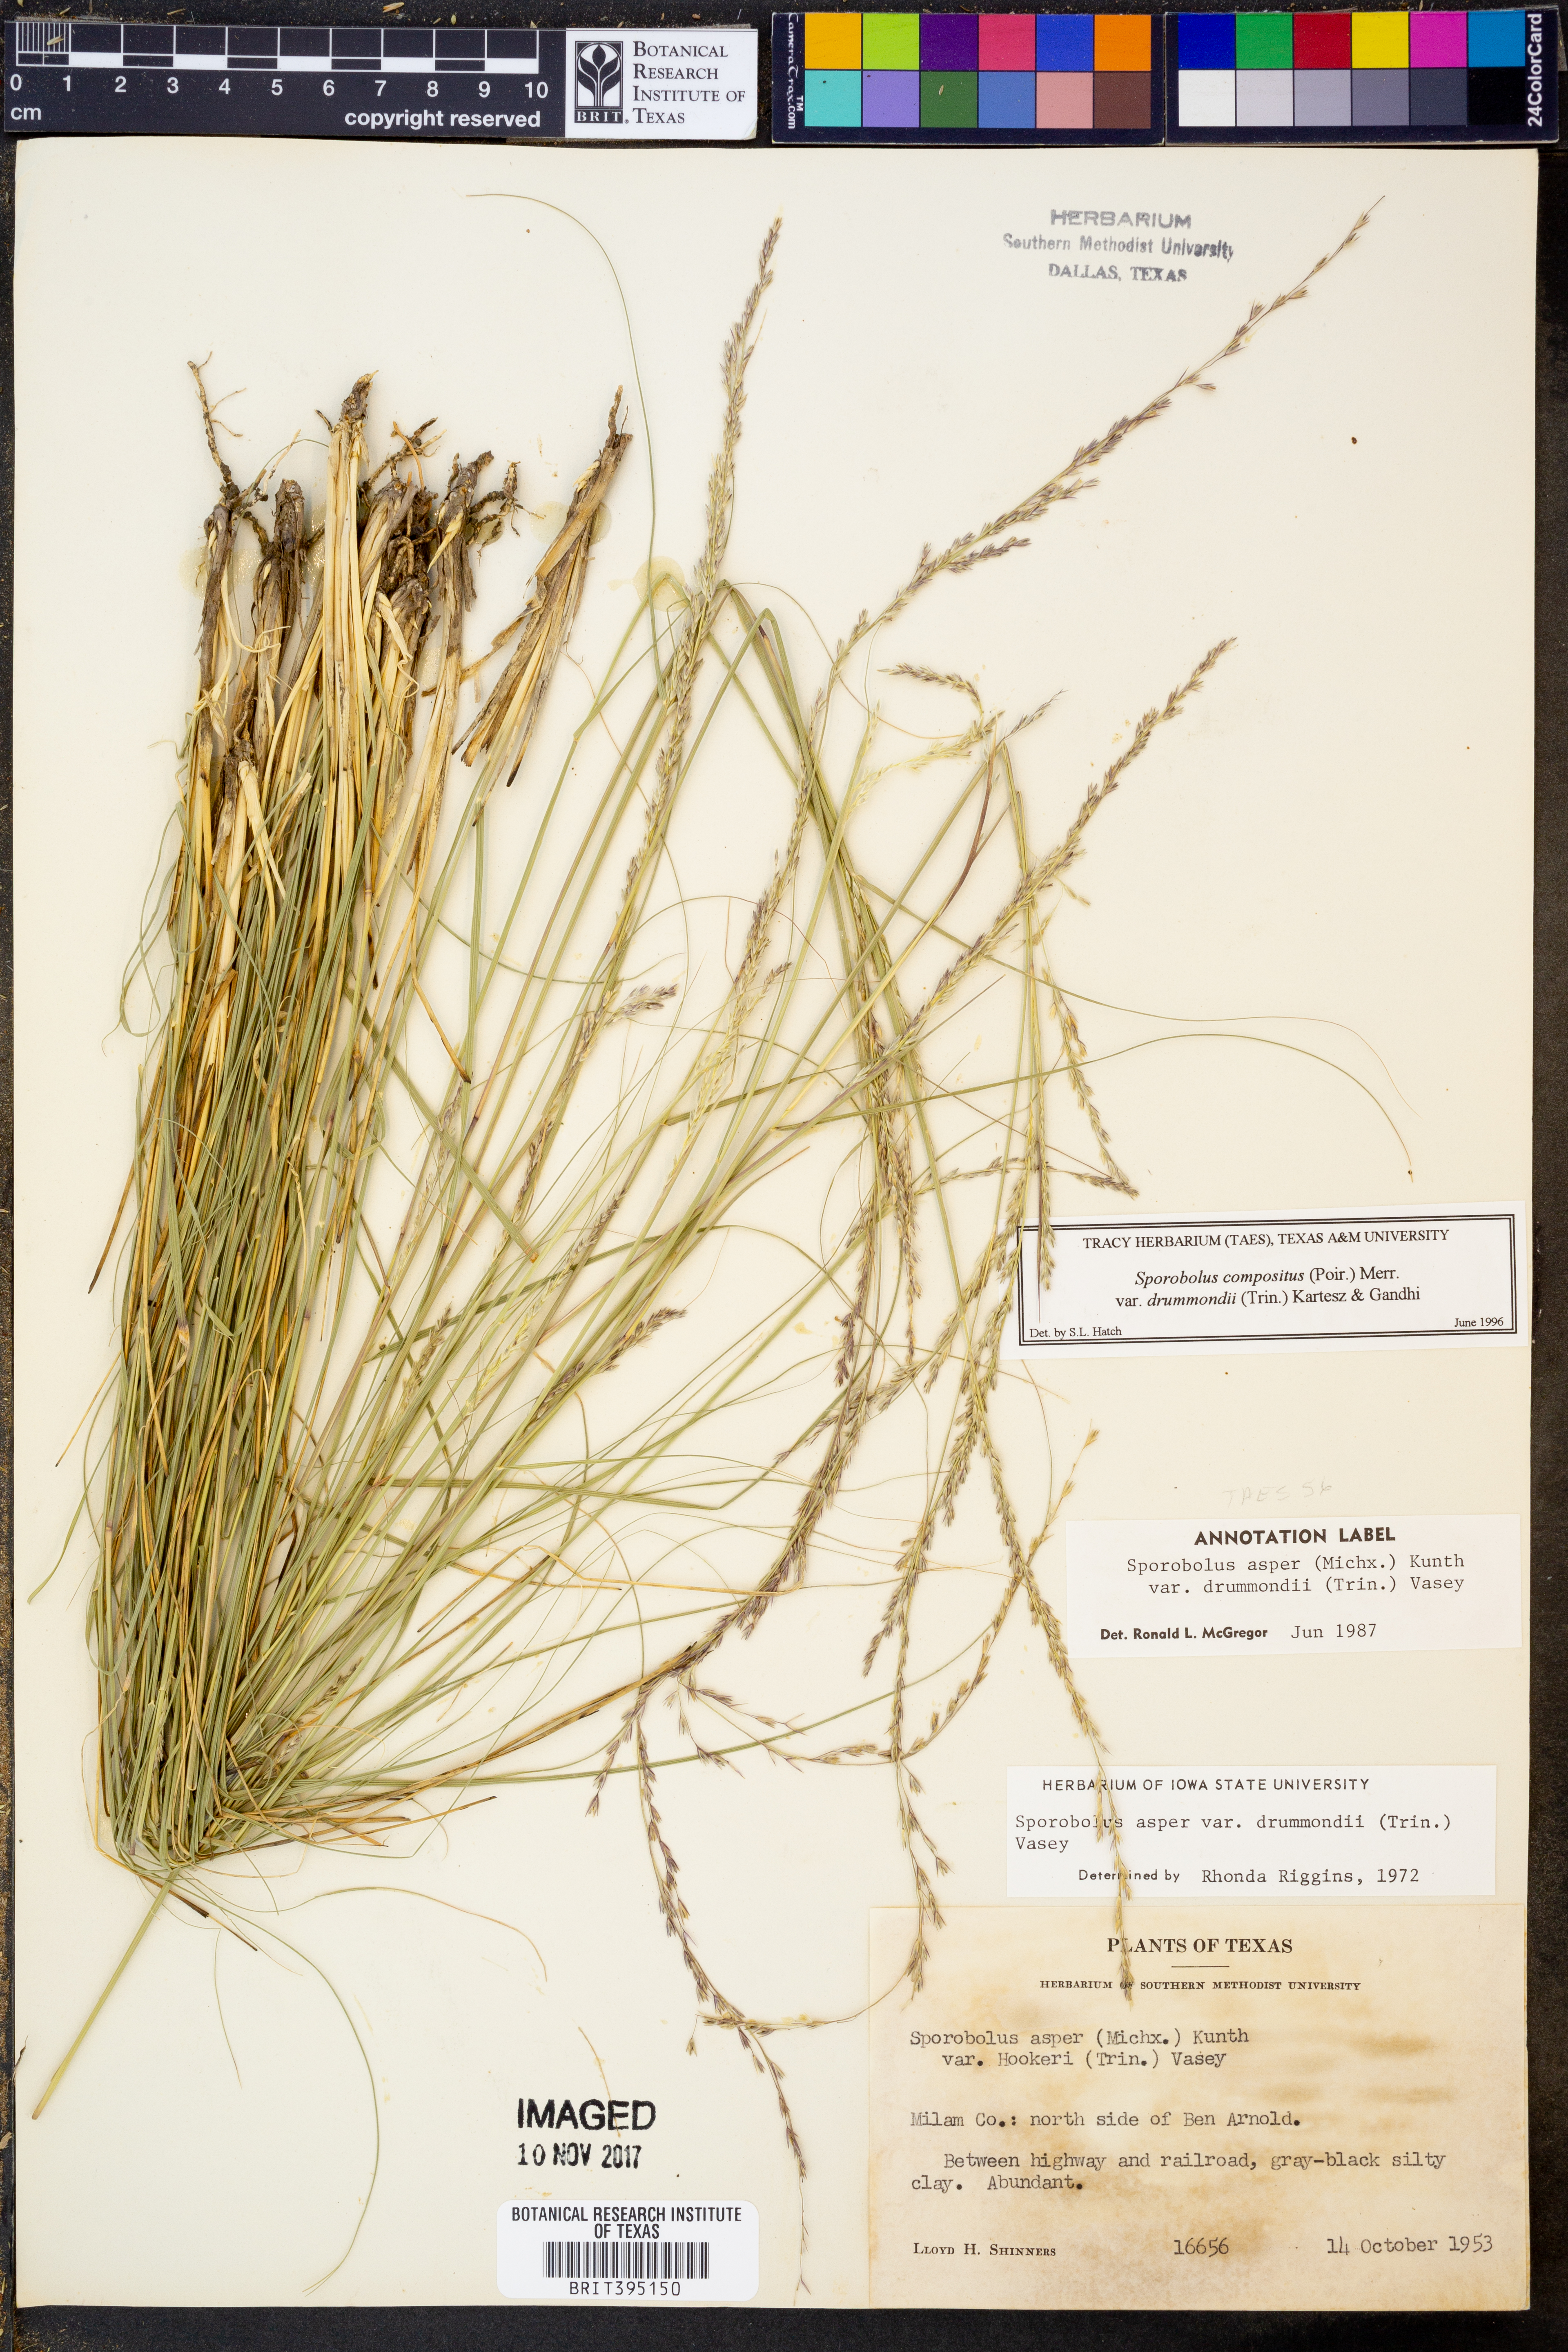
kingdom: Plantae
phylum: Tracheophyta
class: Liliopsida
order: Poales
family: Poaceae
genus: Sporobolus
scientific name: Sporobolus compositus
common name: Rough dropseed
